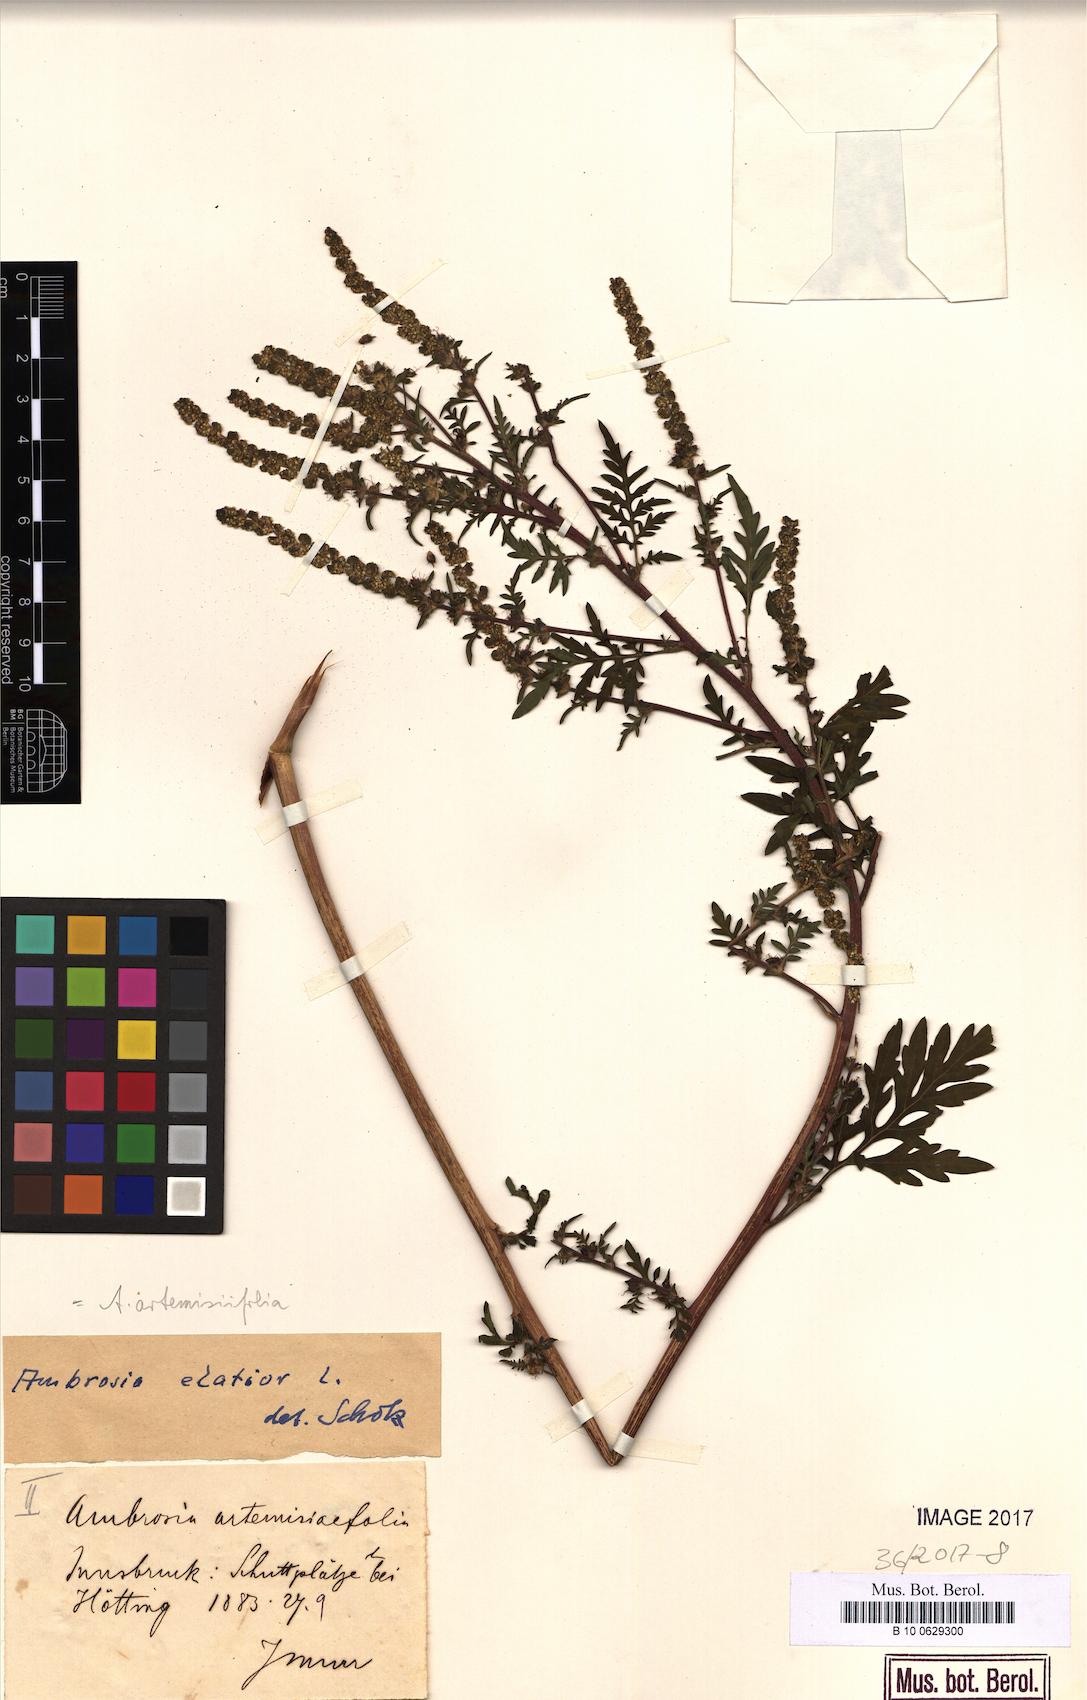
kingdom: Plantae
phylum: Tracheophyta
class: Magnoliopsida
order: Asterales
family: Asteraceae
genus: Ambrosia
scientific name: Ambrosia artemisiifolia
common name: Annual ragweed
